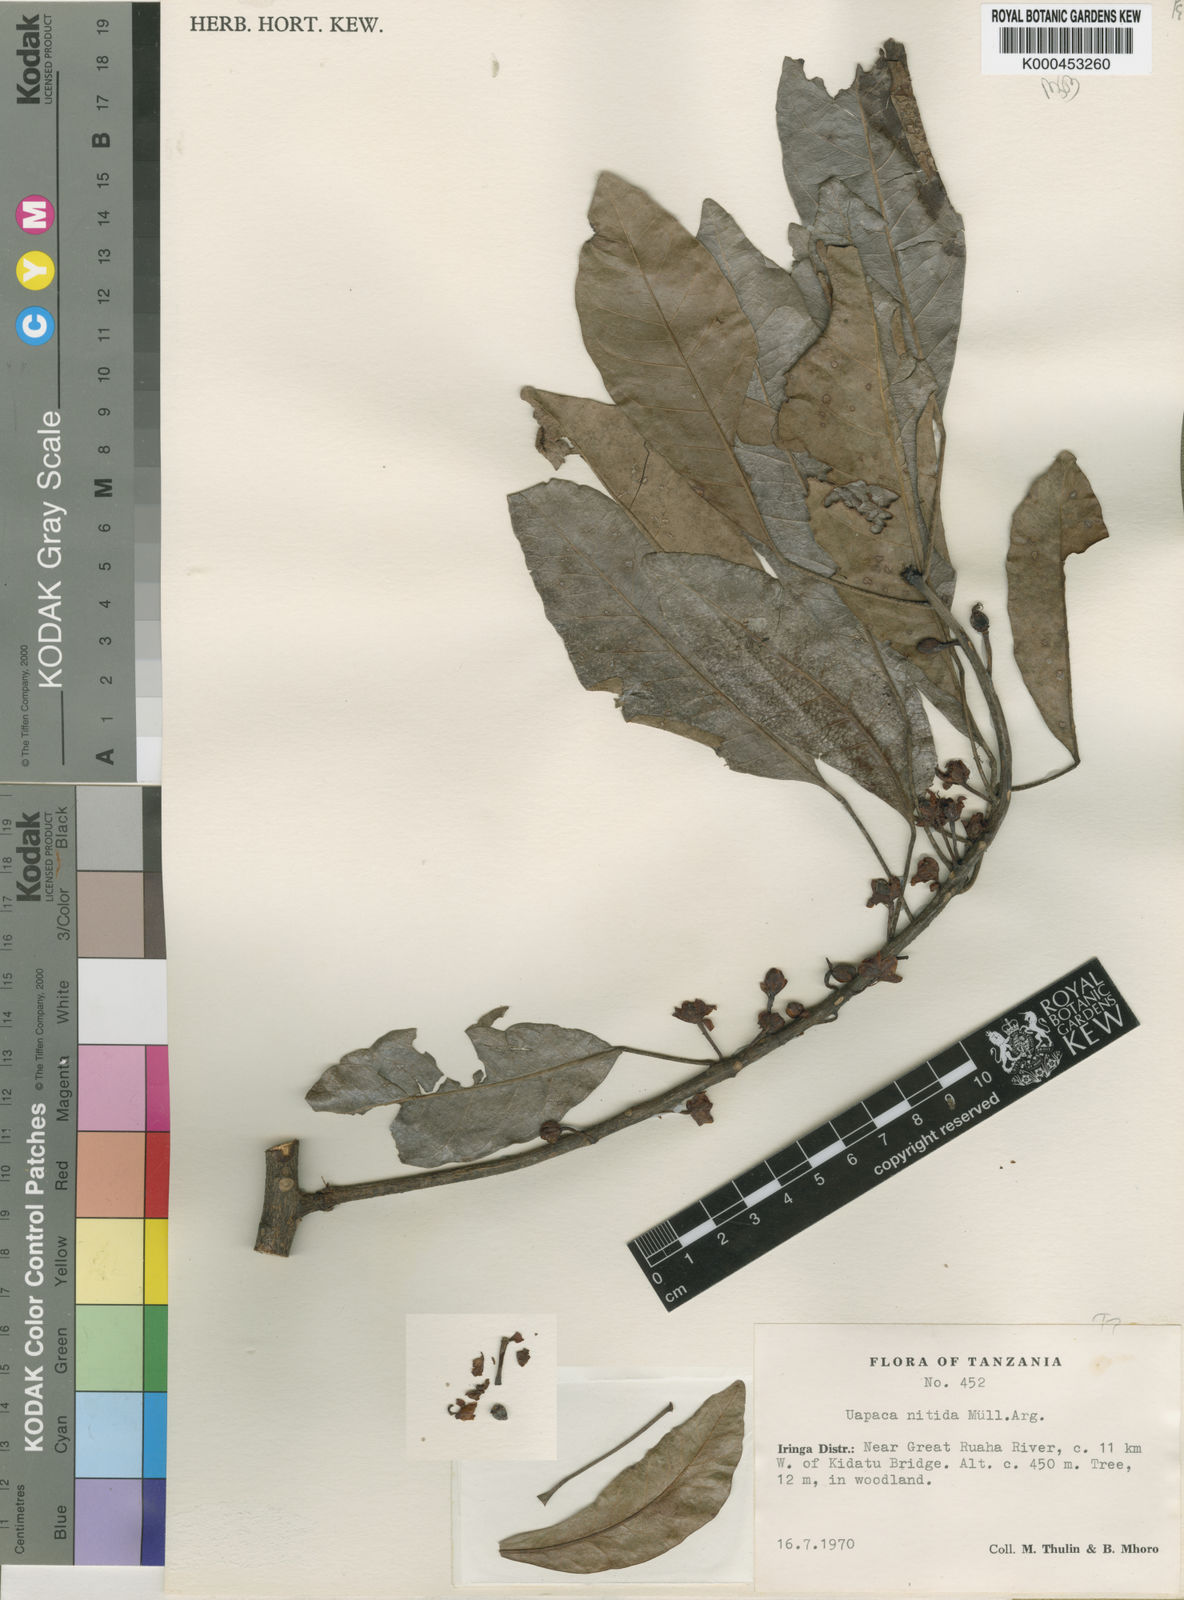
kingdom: Plantae
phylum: Tracheophyta
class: Magnoliopsida
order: Malpighiales
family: Phyllanthaceae
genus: Uapaca
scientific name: Uapaca
